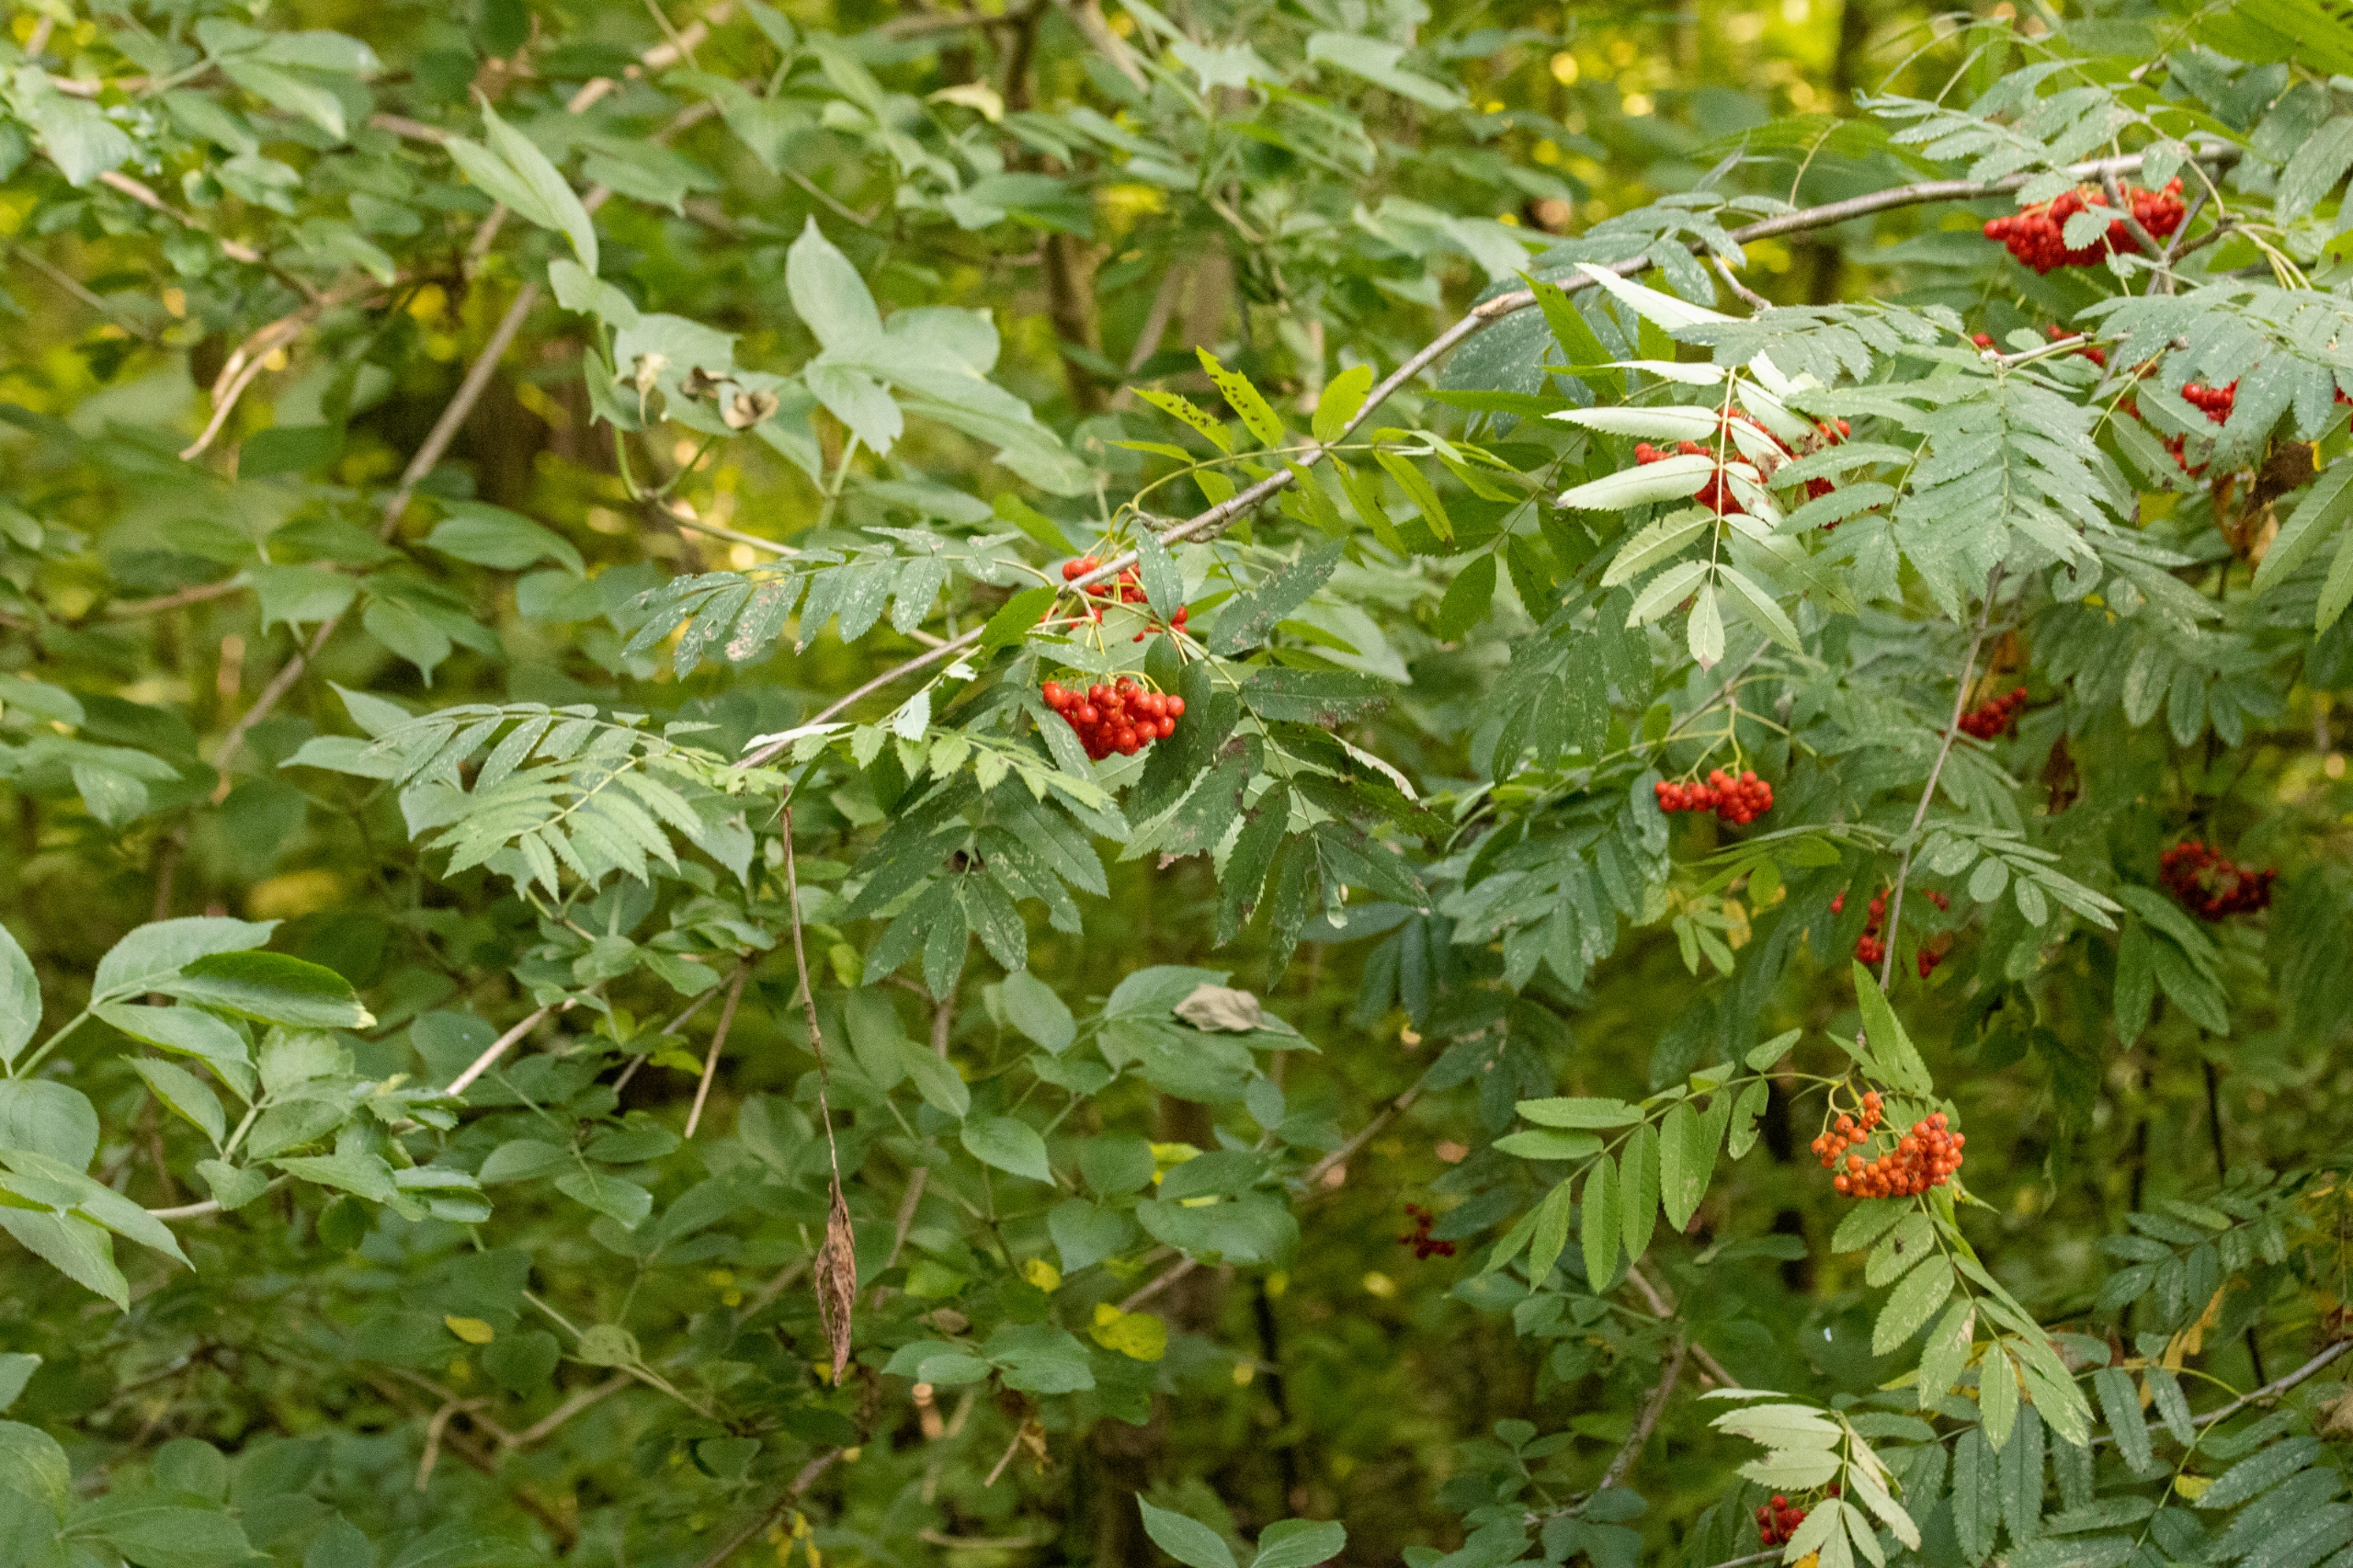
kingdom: Plantae
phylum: Tracheophyta
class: Magnoliopsida
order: Rosales
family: Rosaceae
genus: Sorbus
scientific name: Sorbus aucuparia
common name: Almindelig røn
